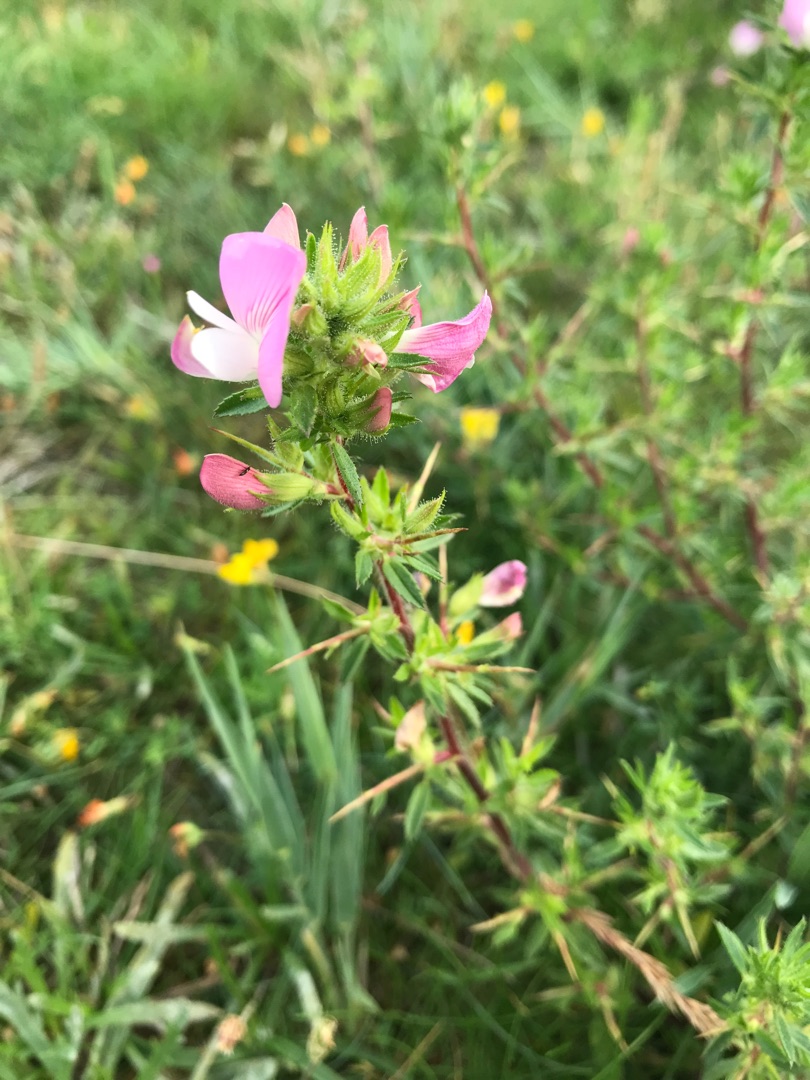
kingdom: Plantae
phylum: Tracheophyta
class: Magnoliopsida
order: Fabales
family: Fabaceae
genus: Ononis
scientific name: Ononis spinosa
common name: Strand-krageklo
